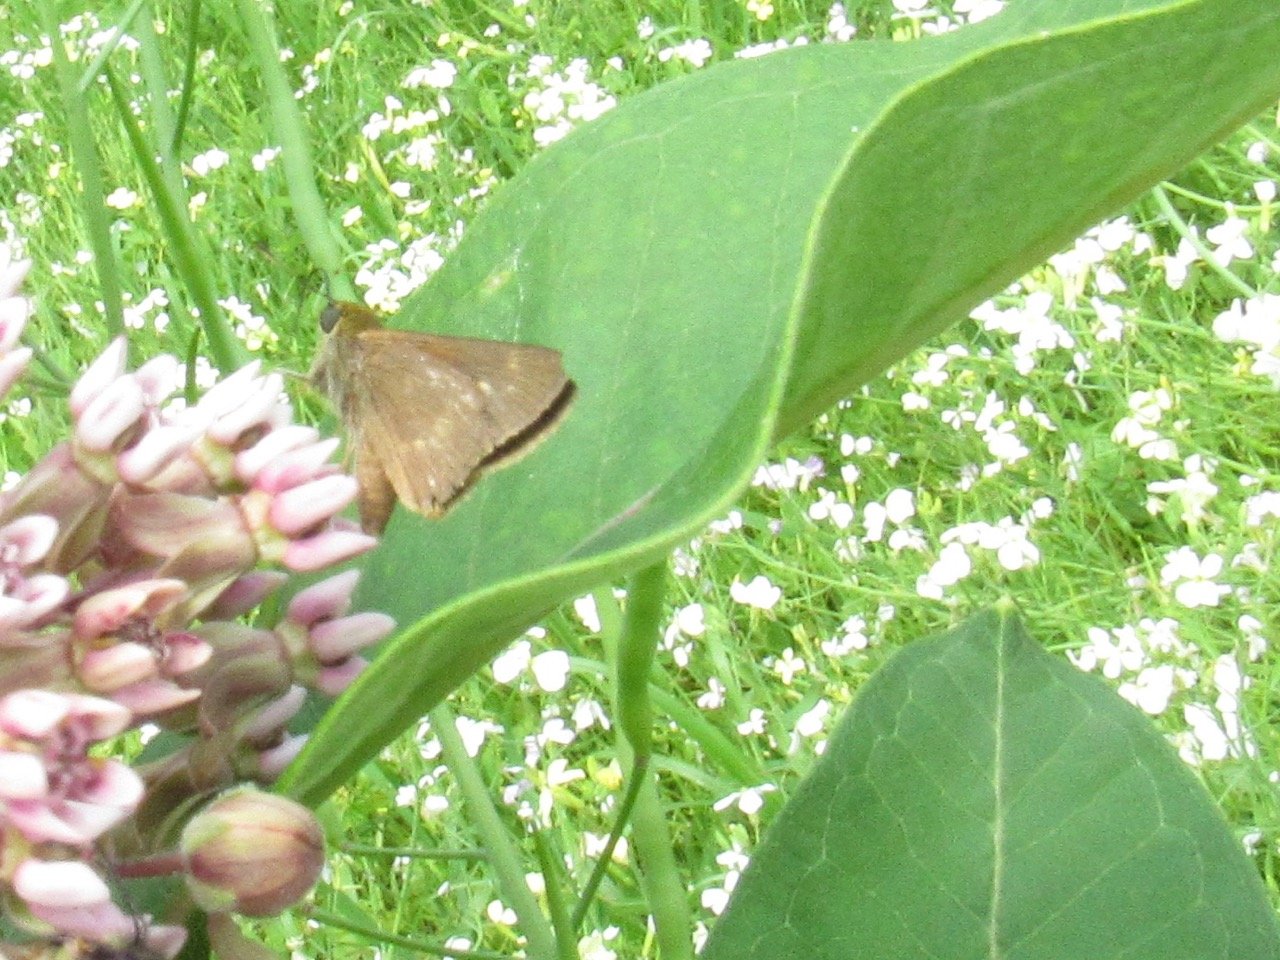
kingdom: Animalia
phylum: Arthropoda
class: Insecta
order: Lepidoptera
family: Hesperiidae
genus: Polites
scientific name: Polites egeremet
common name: Northern Broken-Dash
